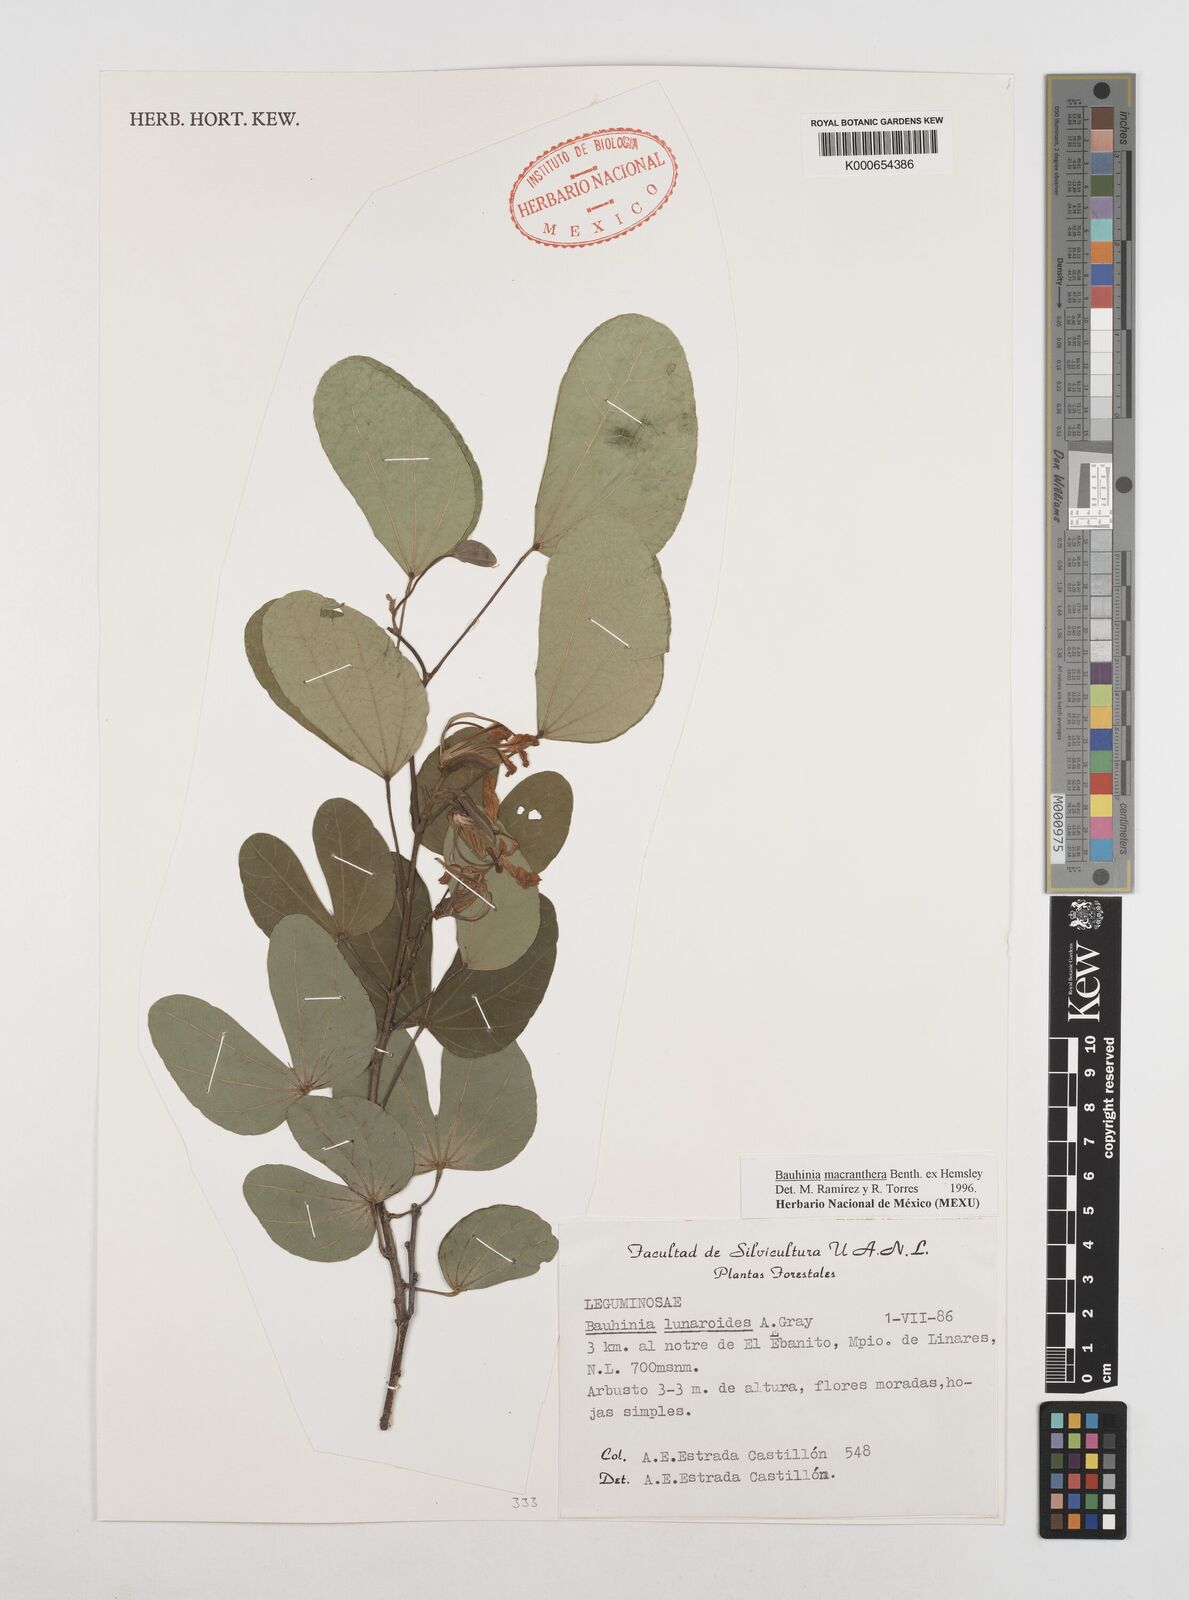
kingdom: Plantae
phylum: Tracheophyta
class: Magnoliopsida
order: Fabales
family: Fabaceae
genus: Bauhinia
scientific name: Bauhinia macranthera
